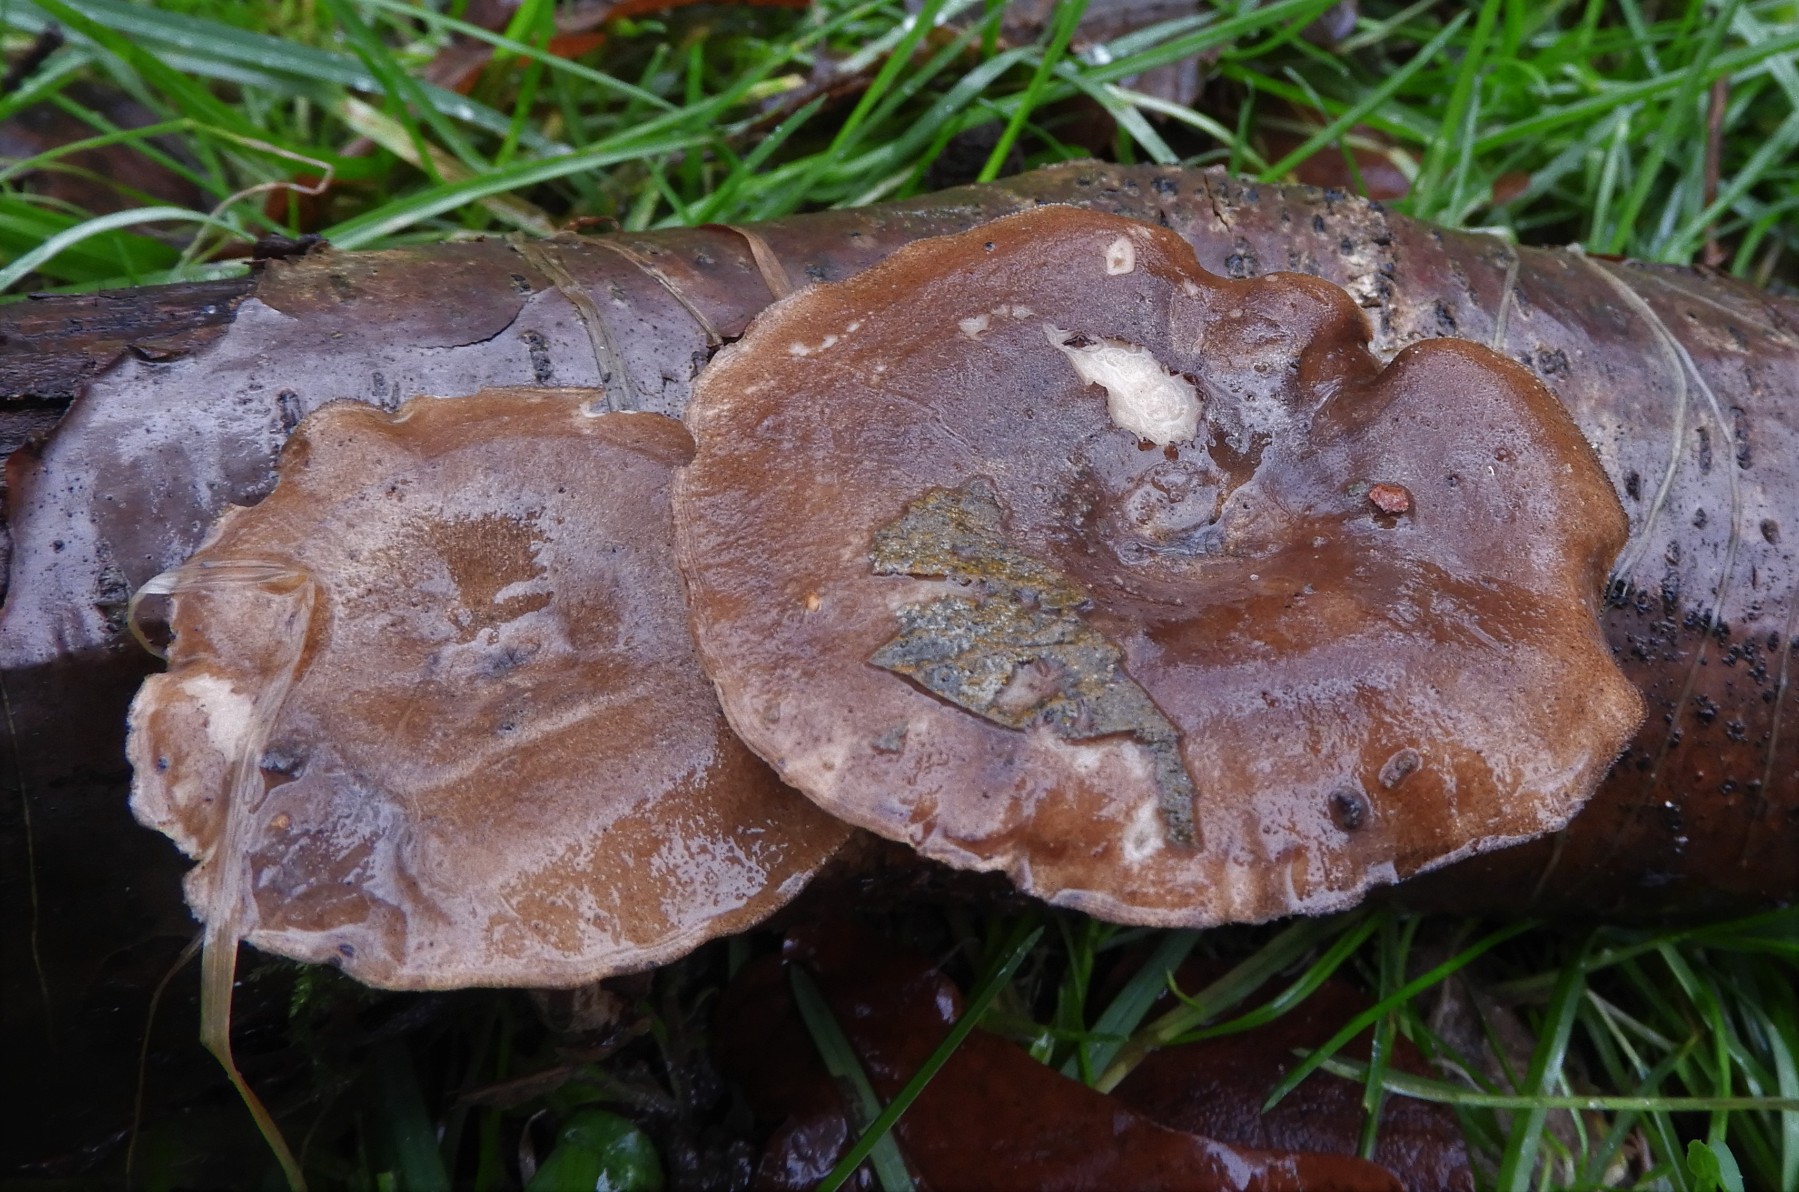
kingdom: Fungi
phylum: Basidiomycota
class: Agaricomycetes
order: Polyporales
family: Polyporaceae
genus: Lentinus
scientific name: Lentinus brumalis
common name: vinter-stilkporesvamp
